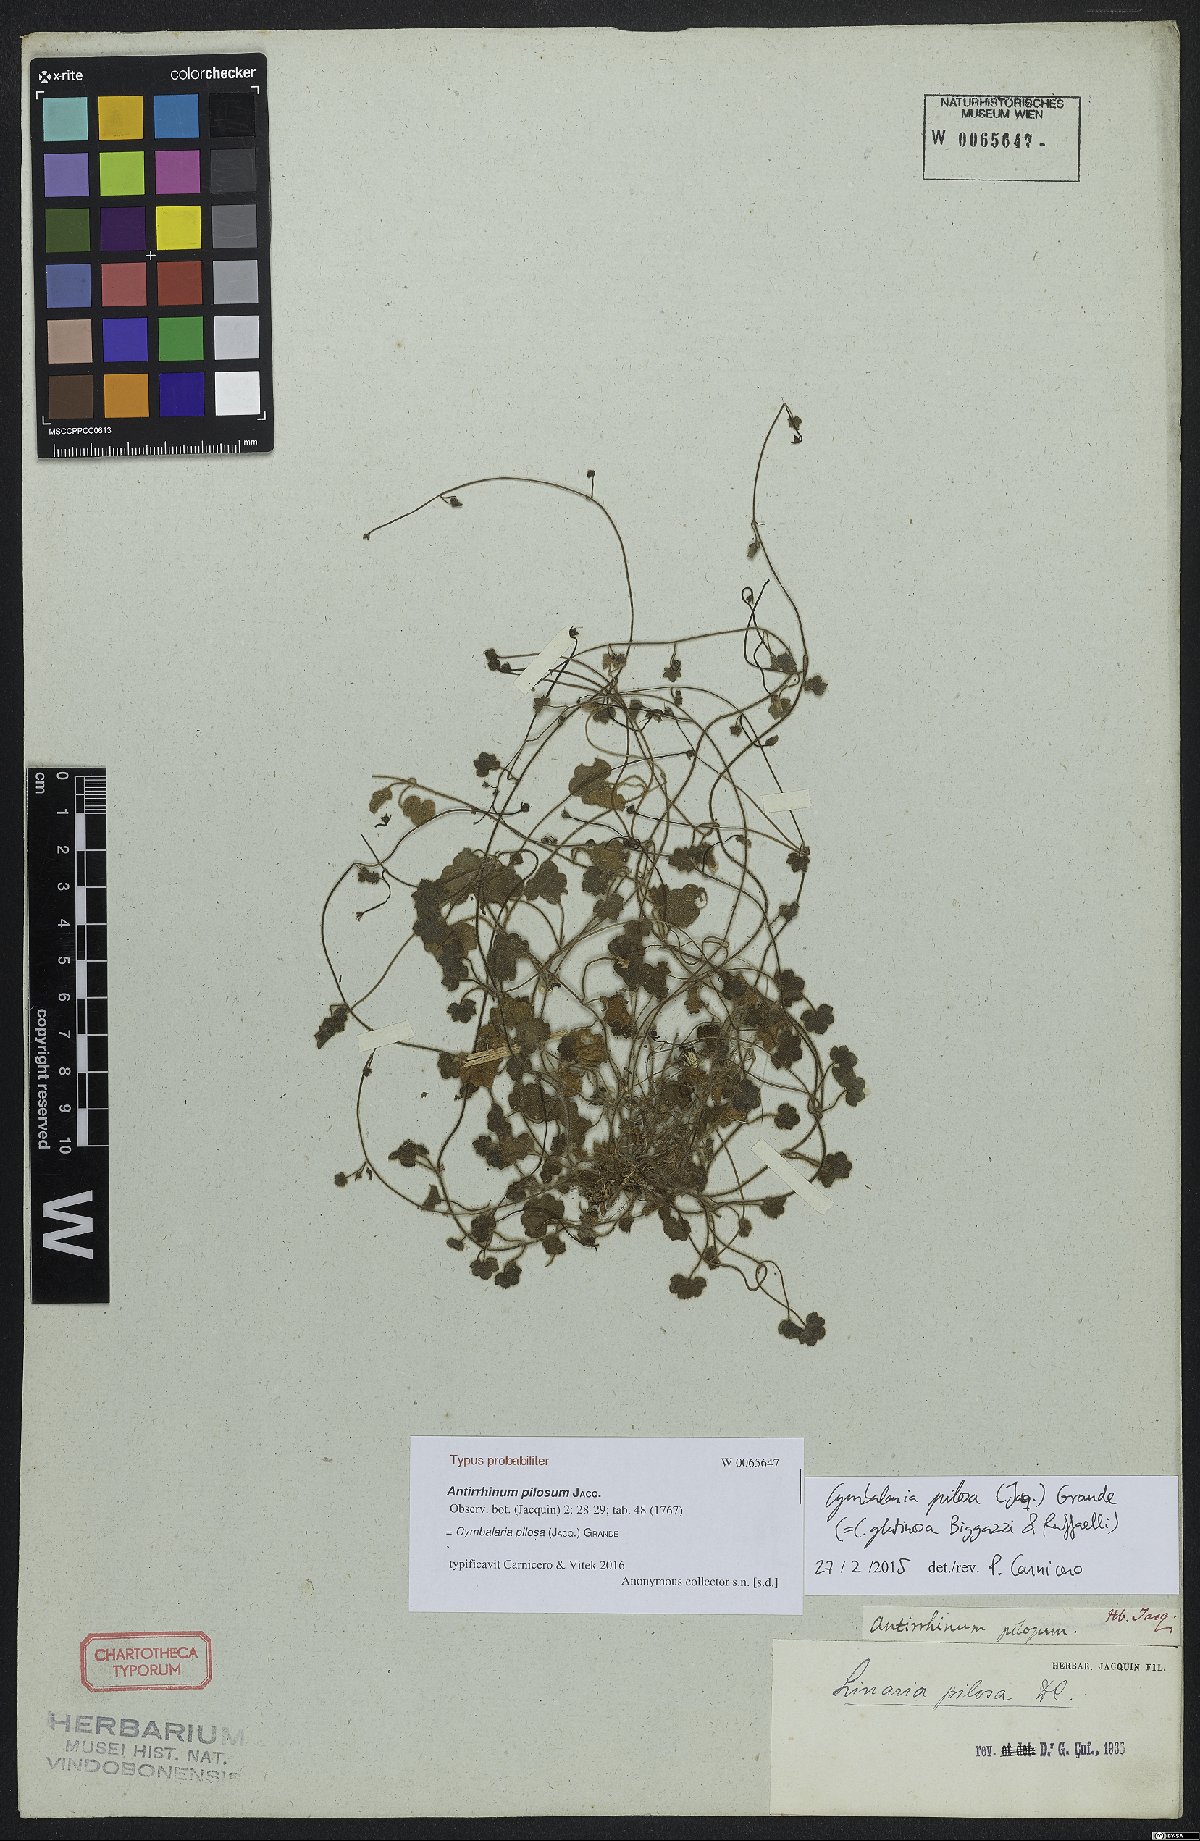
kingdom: Plantae
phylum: Tracheophyta
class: Magnoliopsida
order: Lamiales
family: Plantaginaceae
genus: Sibthorpia
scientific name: Sibthorpia europaea
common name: Cornish moneywort
